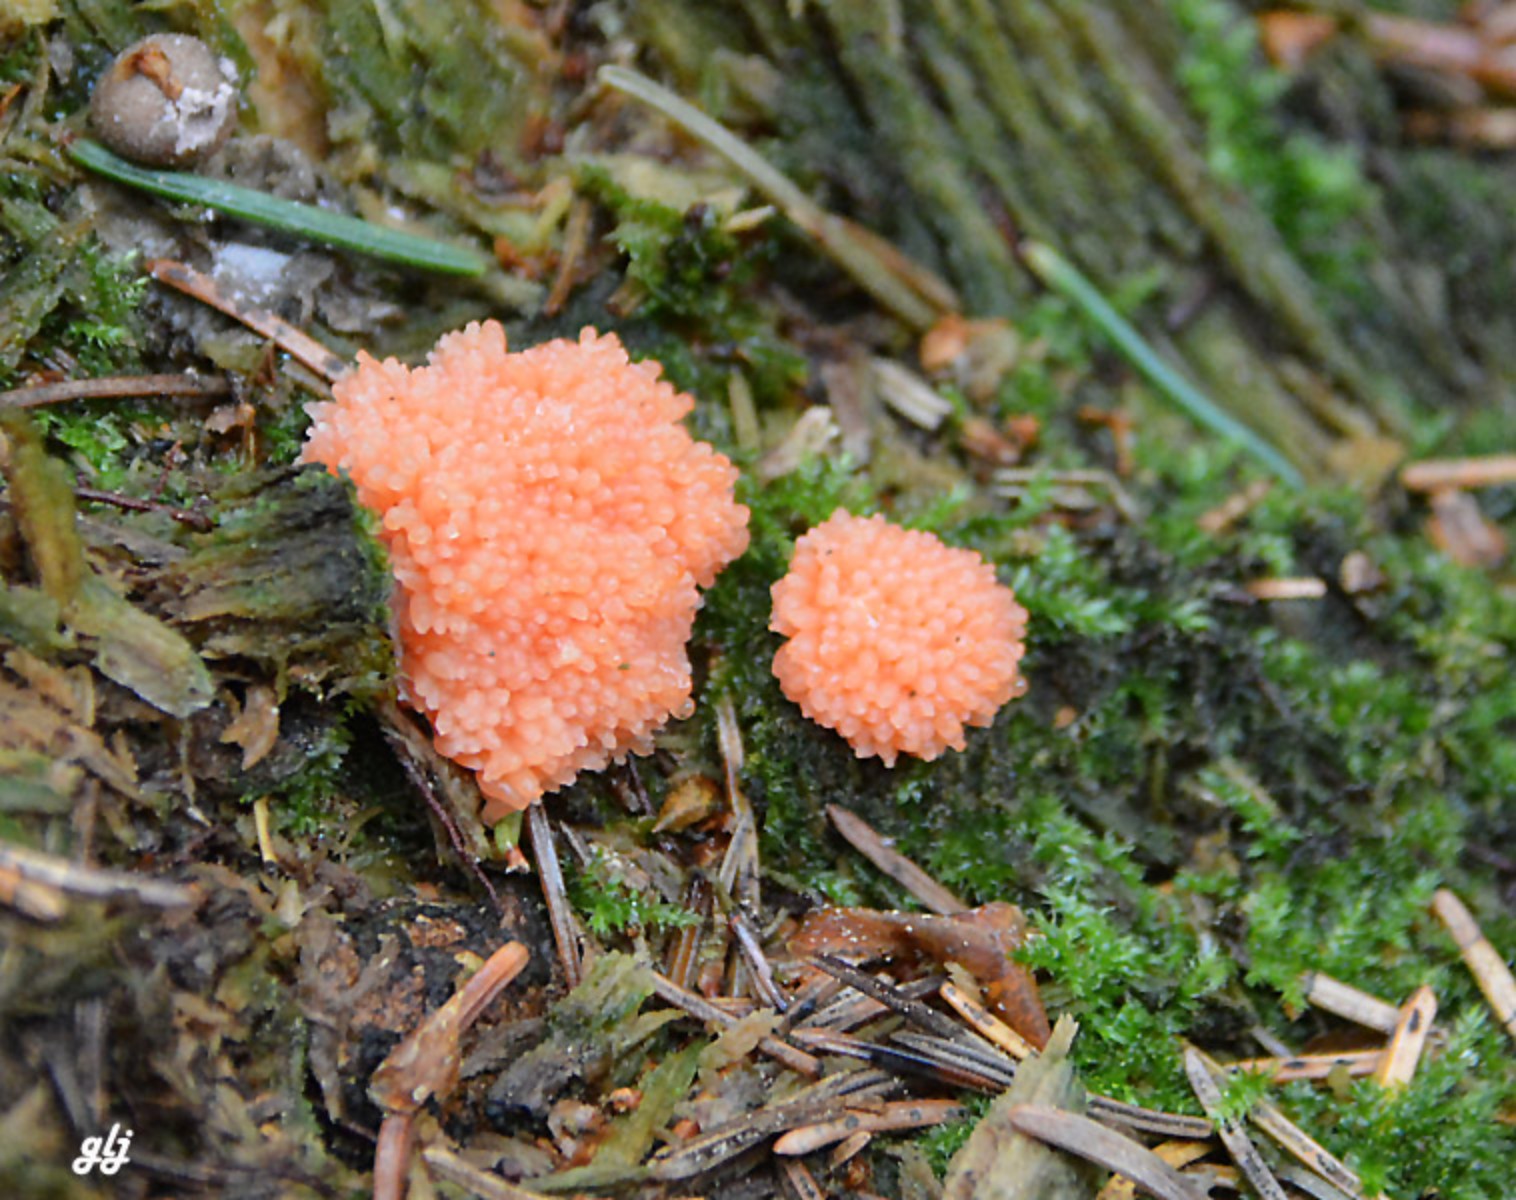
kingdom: Protozoa
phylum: Mycetozoa
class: Myxomycetes
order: Cribrariales
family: Tubiferaceae
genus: Tubifera
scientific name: Tubifera ferruginosa
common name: kanel-støvrør
